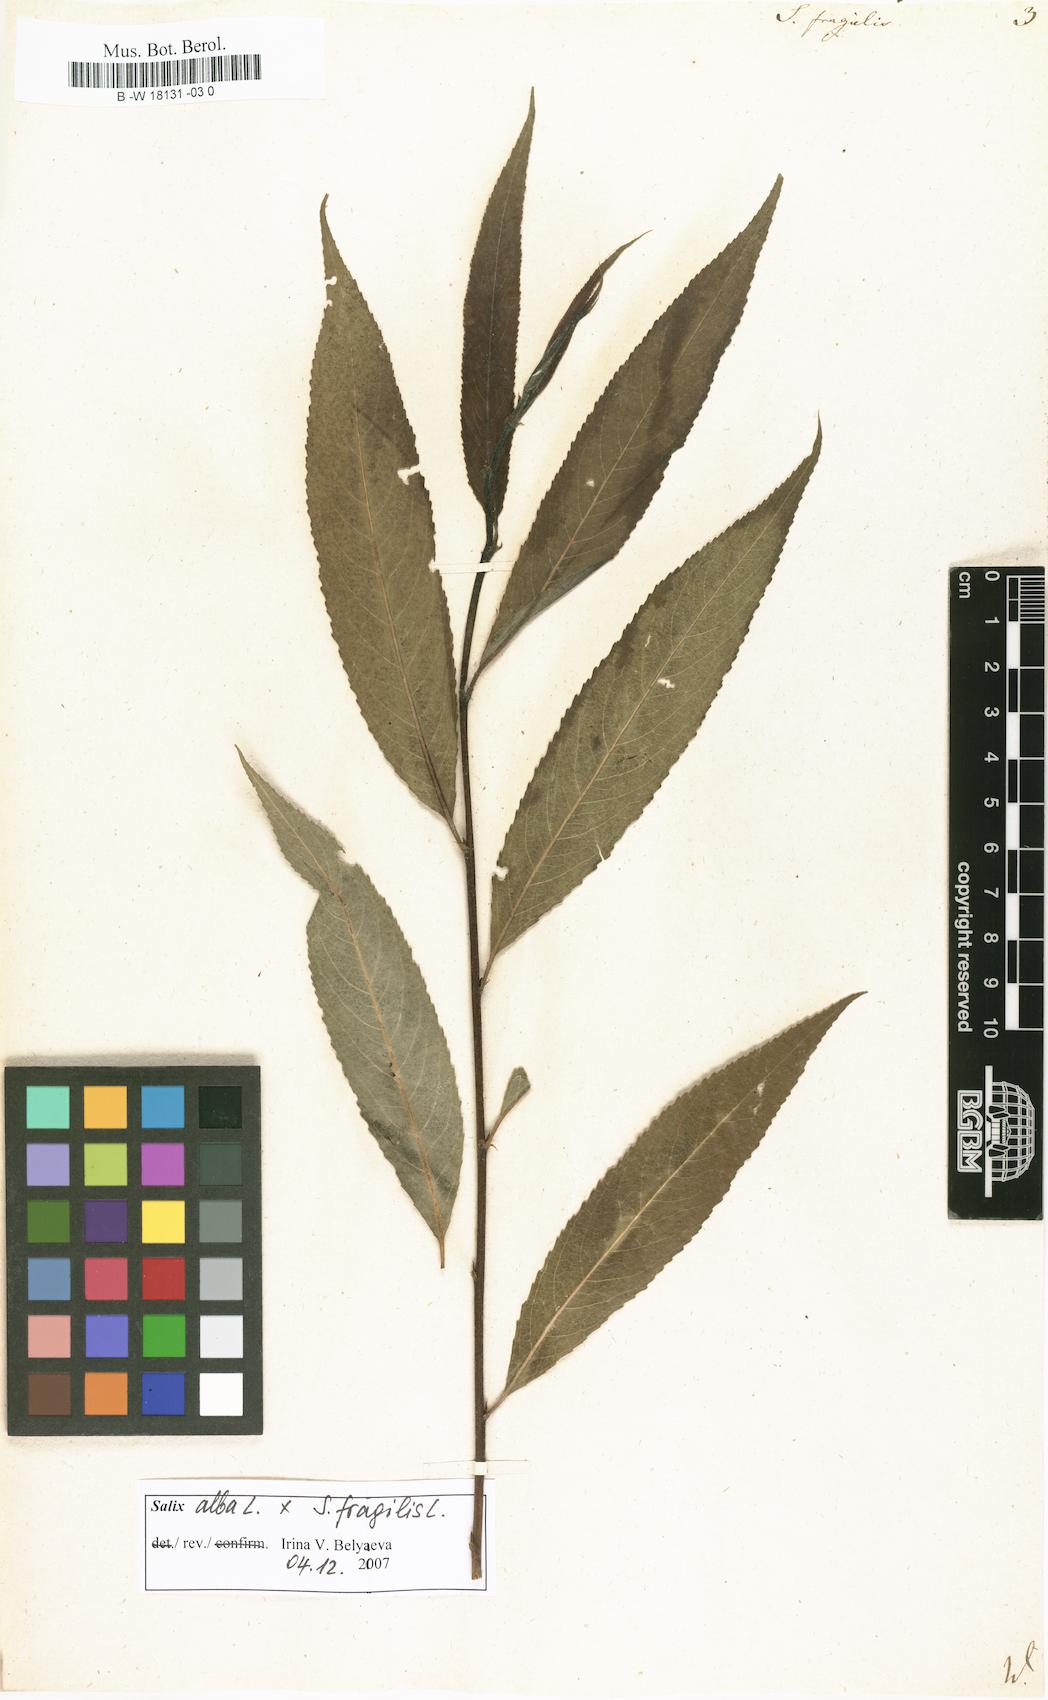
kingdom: Plantae
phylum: Tracheophyta
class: Magnoliopsida
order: Malpighiales
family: Salicaceae
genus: Salix
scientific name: Salix fragilis
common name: Crack willow
